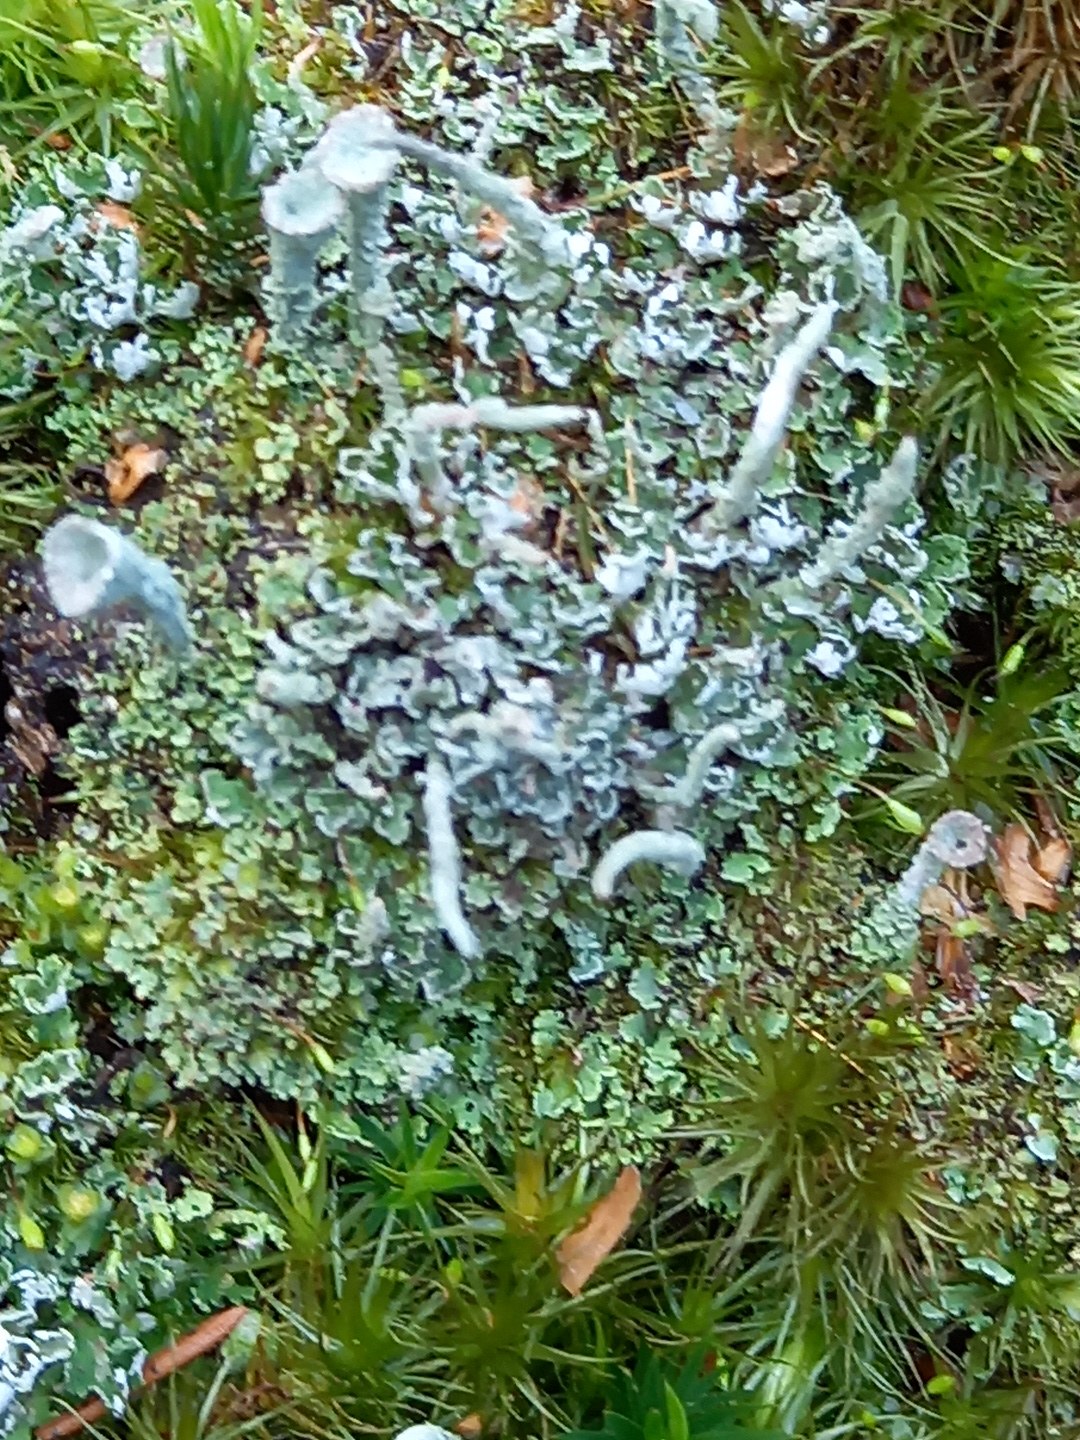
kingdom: Fungi
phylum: Ascomycota
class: Lecanoromycetes
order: Lecanorales
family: Cladoniaceae
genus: Cladonia
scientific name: Cladonia
